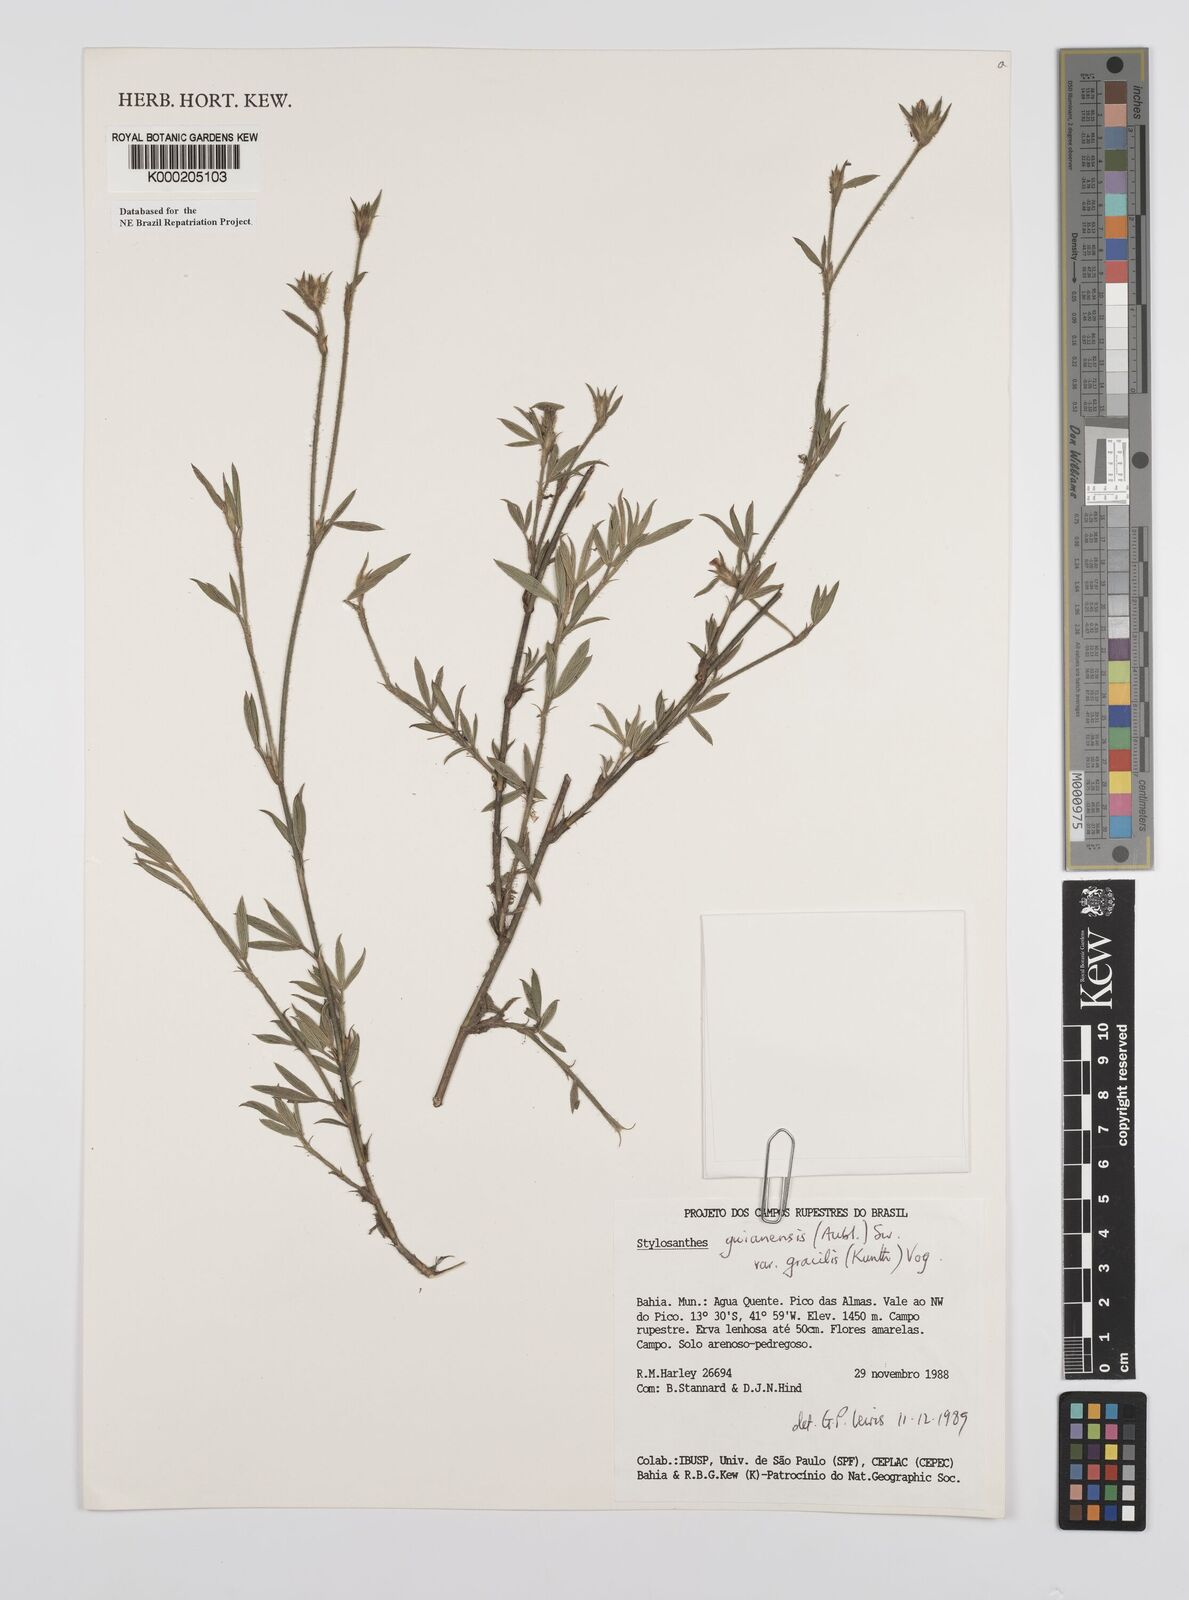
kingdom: Plantae
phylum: Tracheophyta
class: Magnoliopsida
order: Fabales
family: Fabaceae
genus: Stylosanthes
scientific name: Stylosanthes guianensis
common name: Pencil flower
